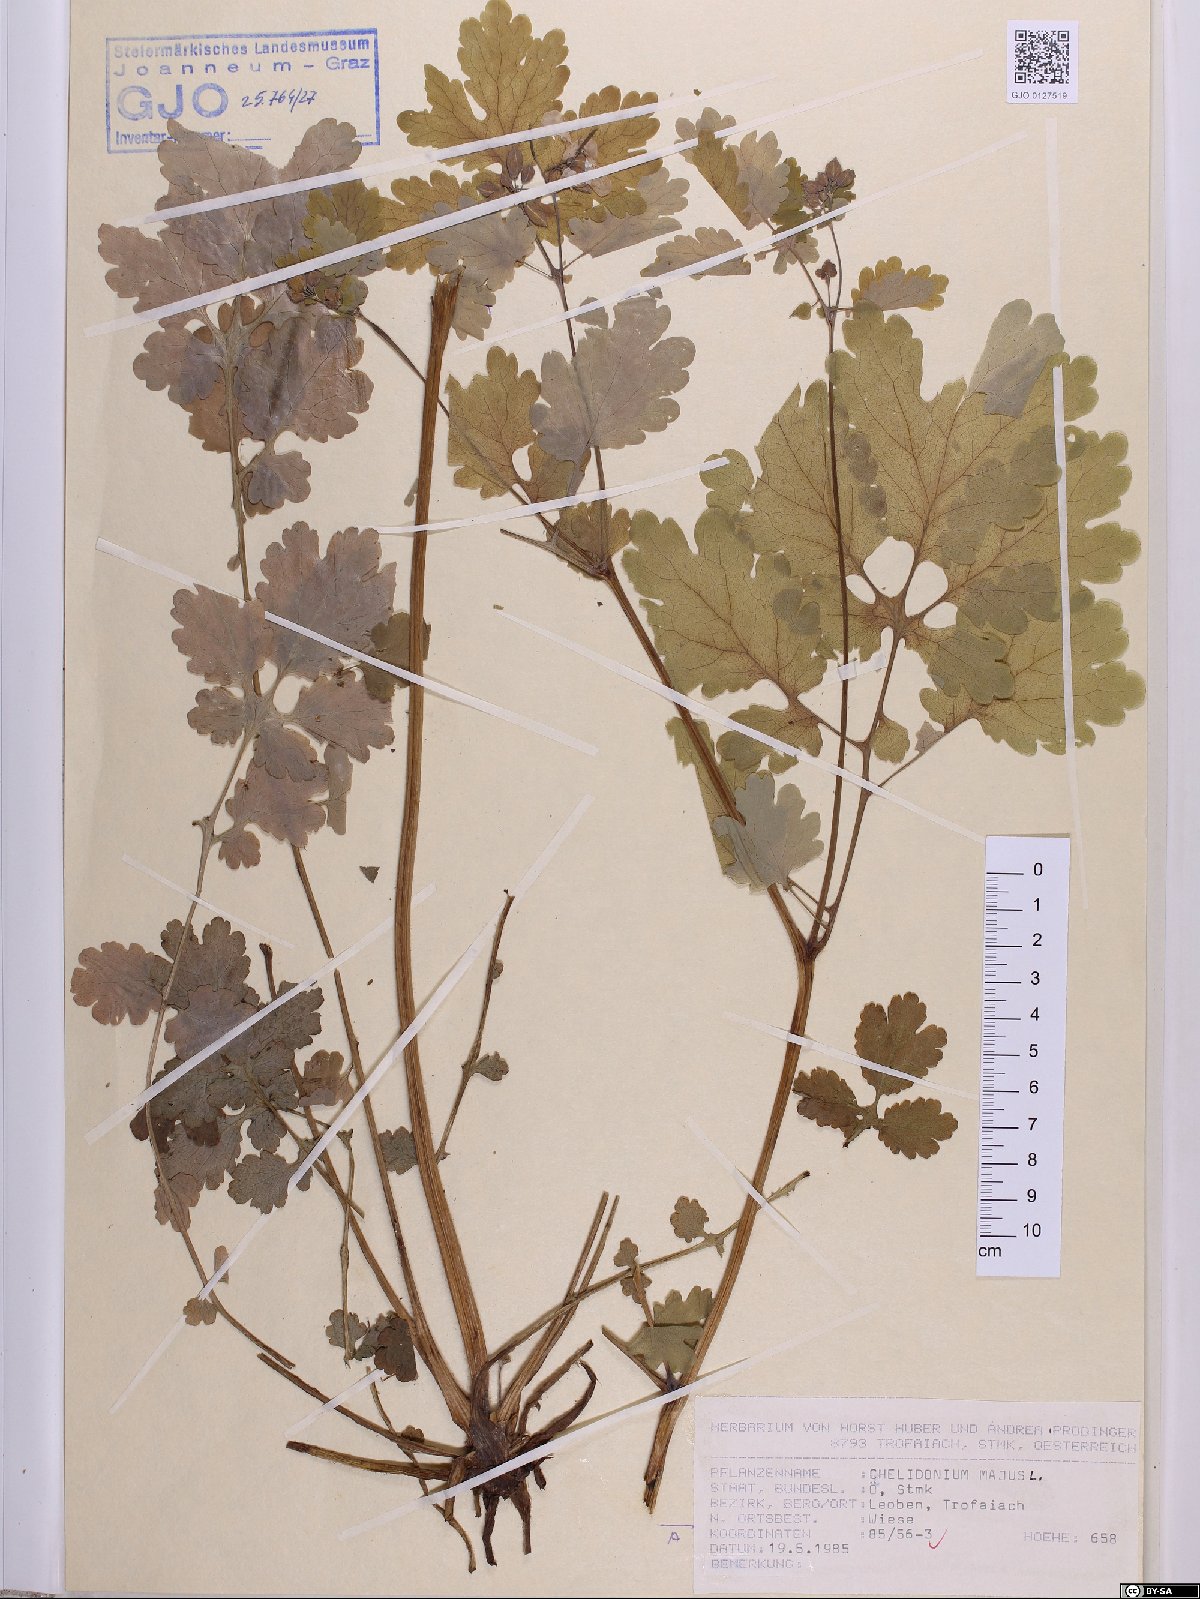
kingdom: Plantae
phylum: Tracheophyta
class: Magnoliopsida
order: Ranunculales
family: Papaveraceae
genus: Chelidonium
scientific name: Chelidonium majus
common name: Greater celandine
